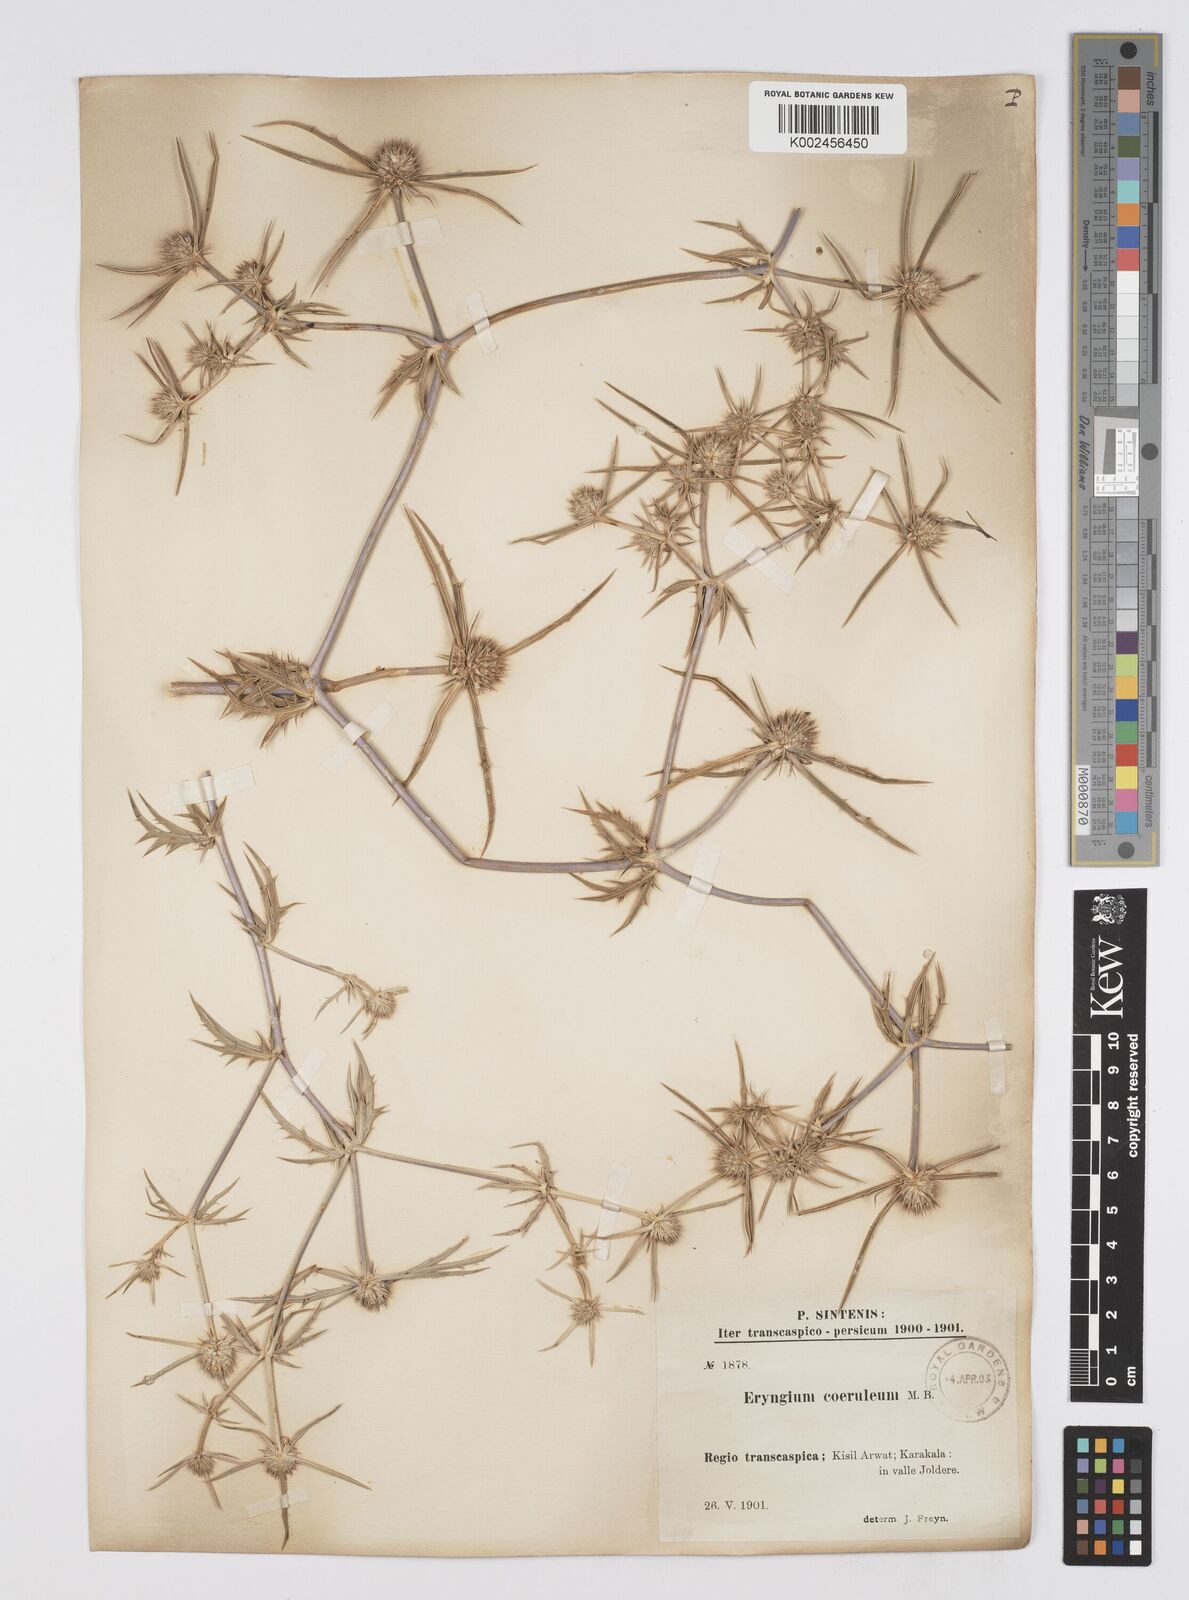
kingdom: Plantae
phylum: Tracheophyta
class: Magnoliopsida
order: Apiales
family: Apiaceae
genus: Eryngium
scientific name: Eryngium caeruleum
